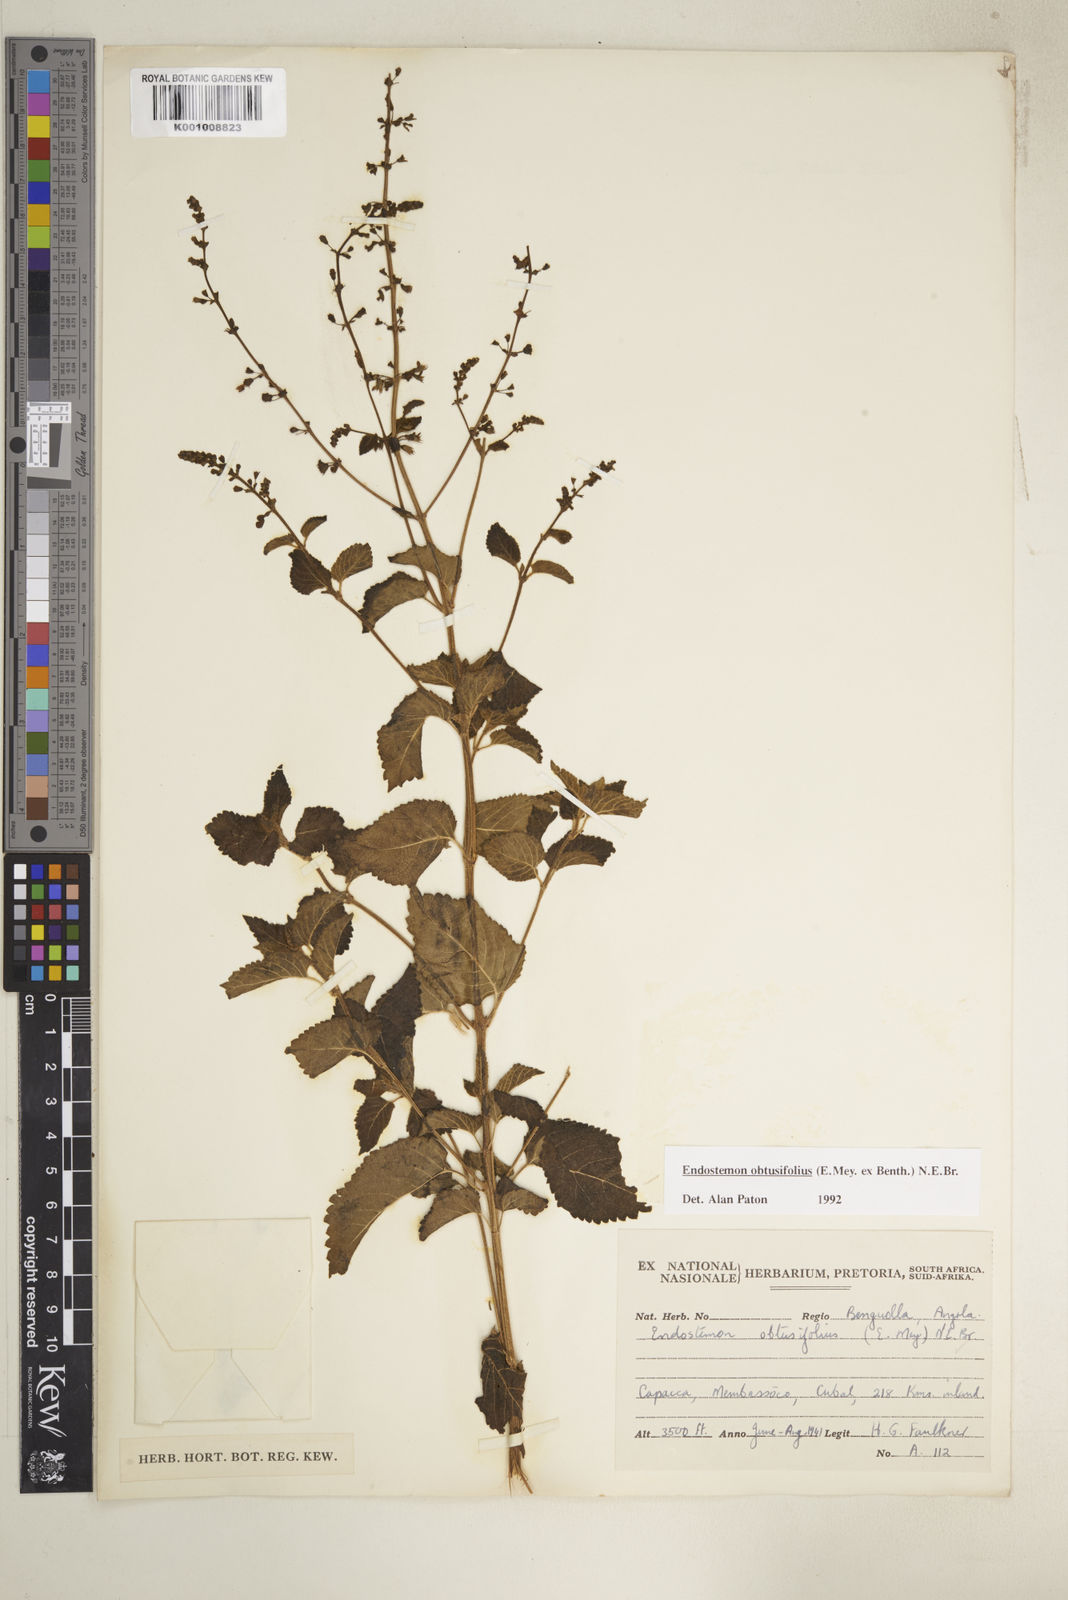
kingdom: Plantae
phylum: Tracheophyta
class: Magnoliopsida
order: Lamiales
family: Lamiaceae
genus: Endostemon
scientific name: Endostemon obtusifolius
